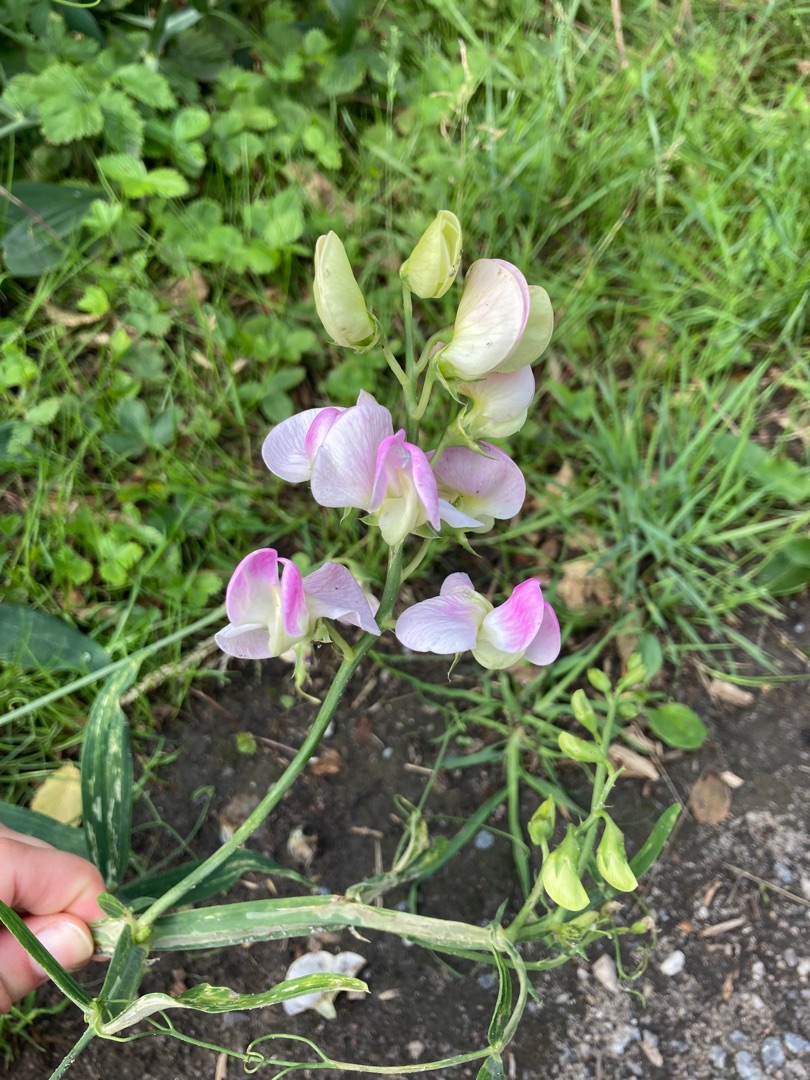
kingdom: Plantae
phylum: Tracheophyta
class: Magnoliopsida
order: Fabales
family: Fabaceae
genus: Lathyrus
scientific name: Lathyrus latifolius
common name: Flerårig ærteblomst
